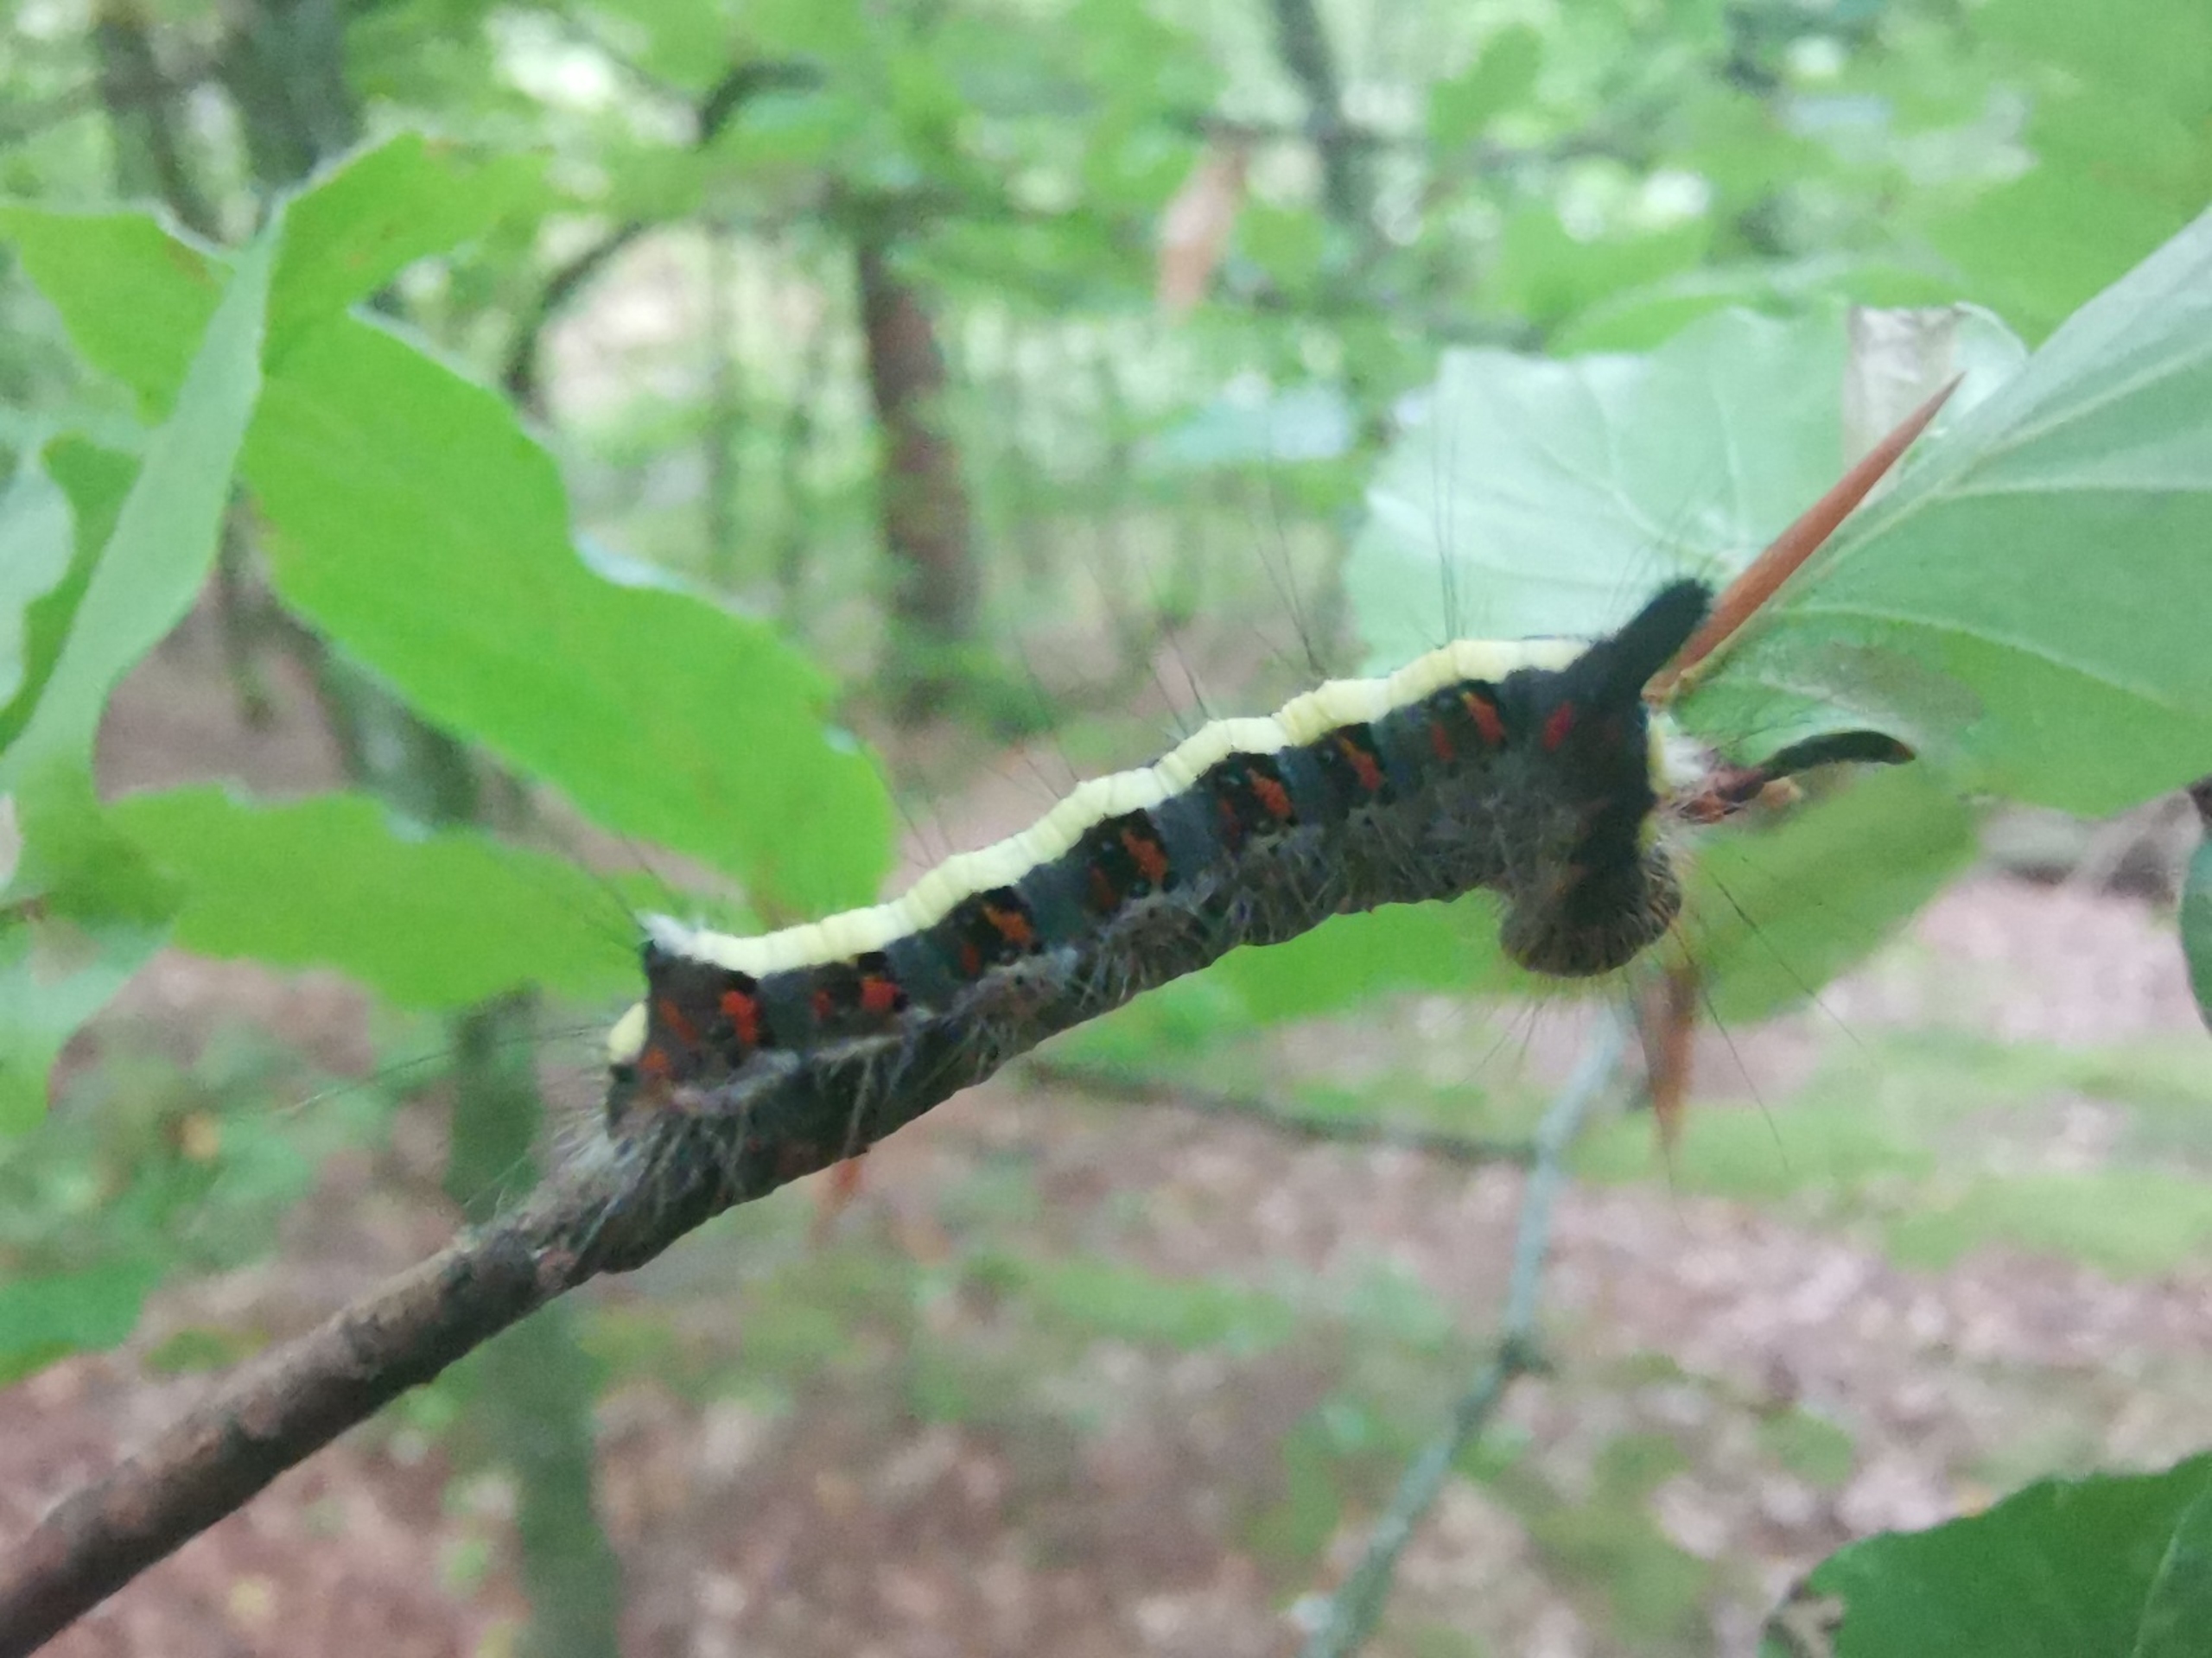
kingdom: Animalia
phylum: Arthropoda
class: Insecta
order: Lepidoptera
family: Noctuidae
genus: Acronicta
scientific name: Acronicta psi
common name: Psi-ugle
